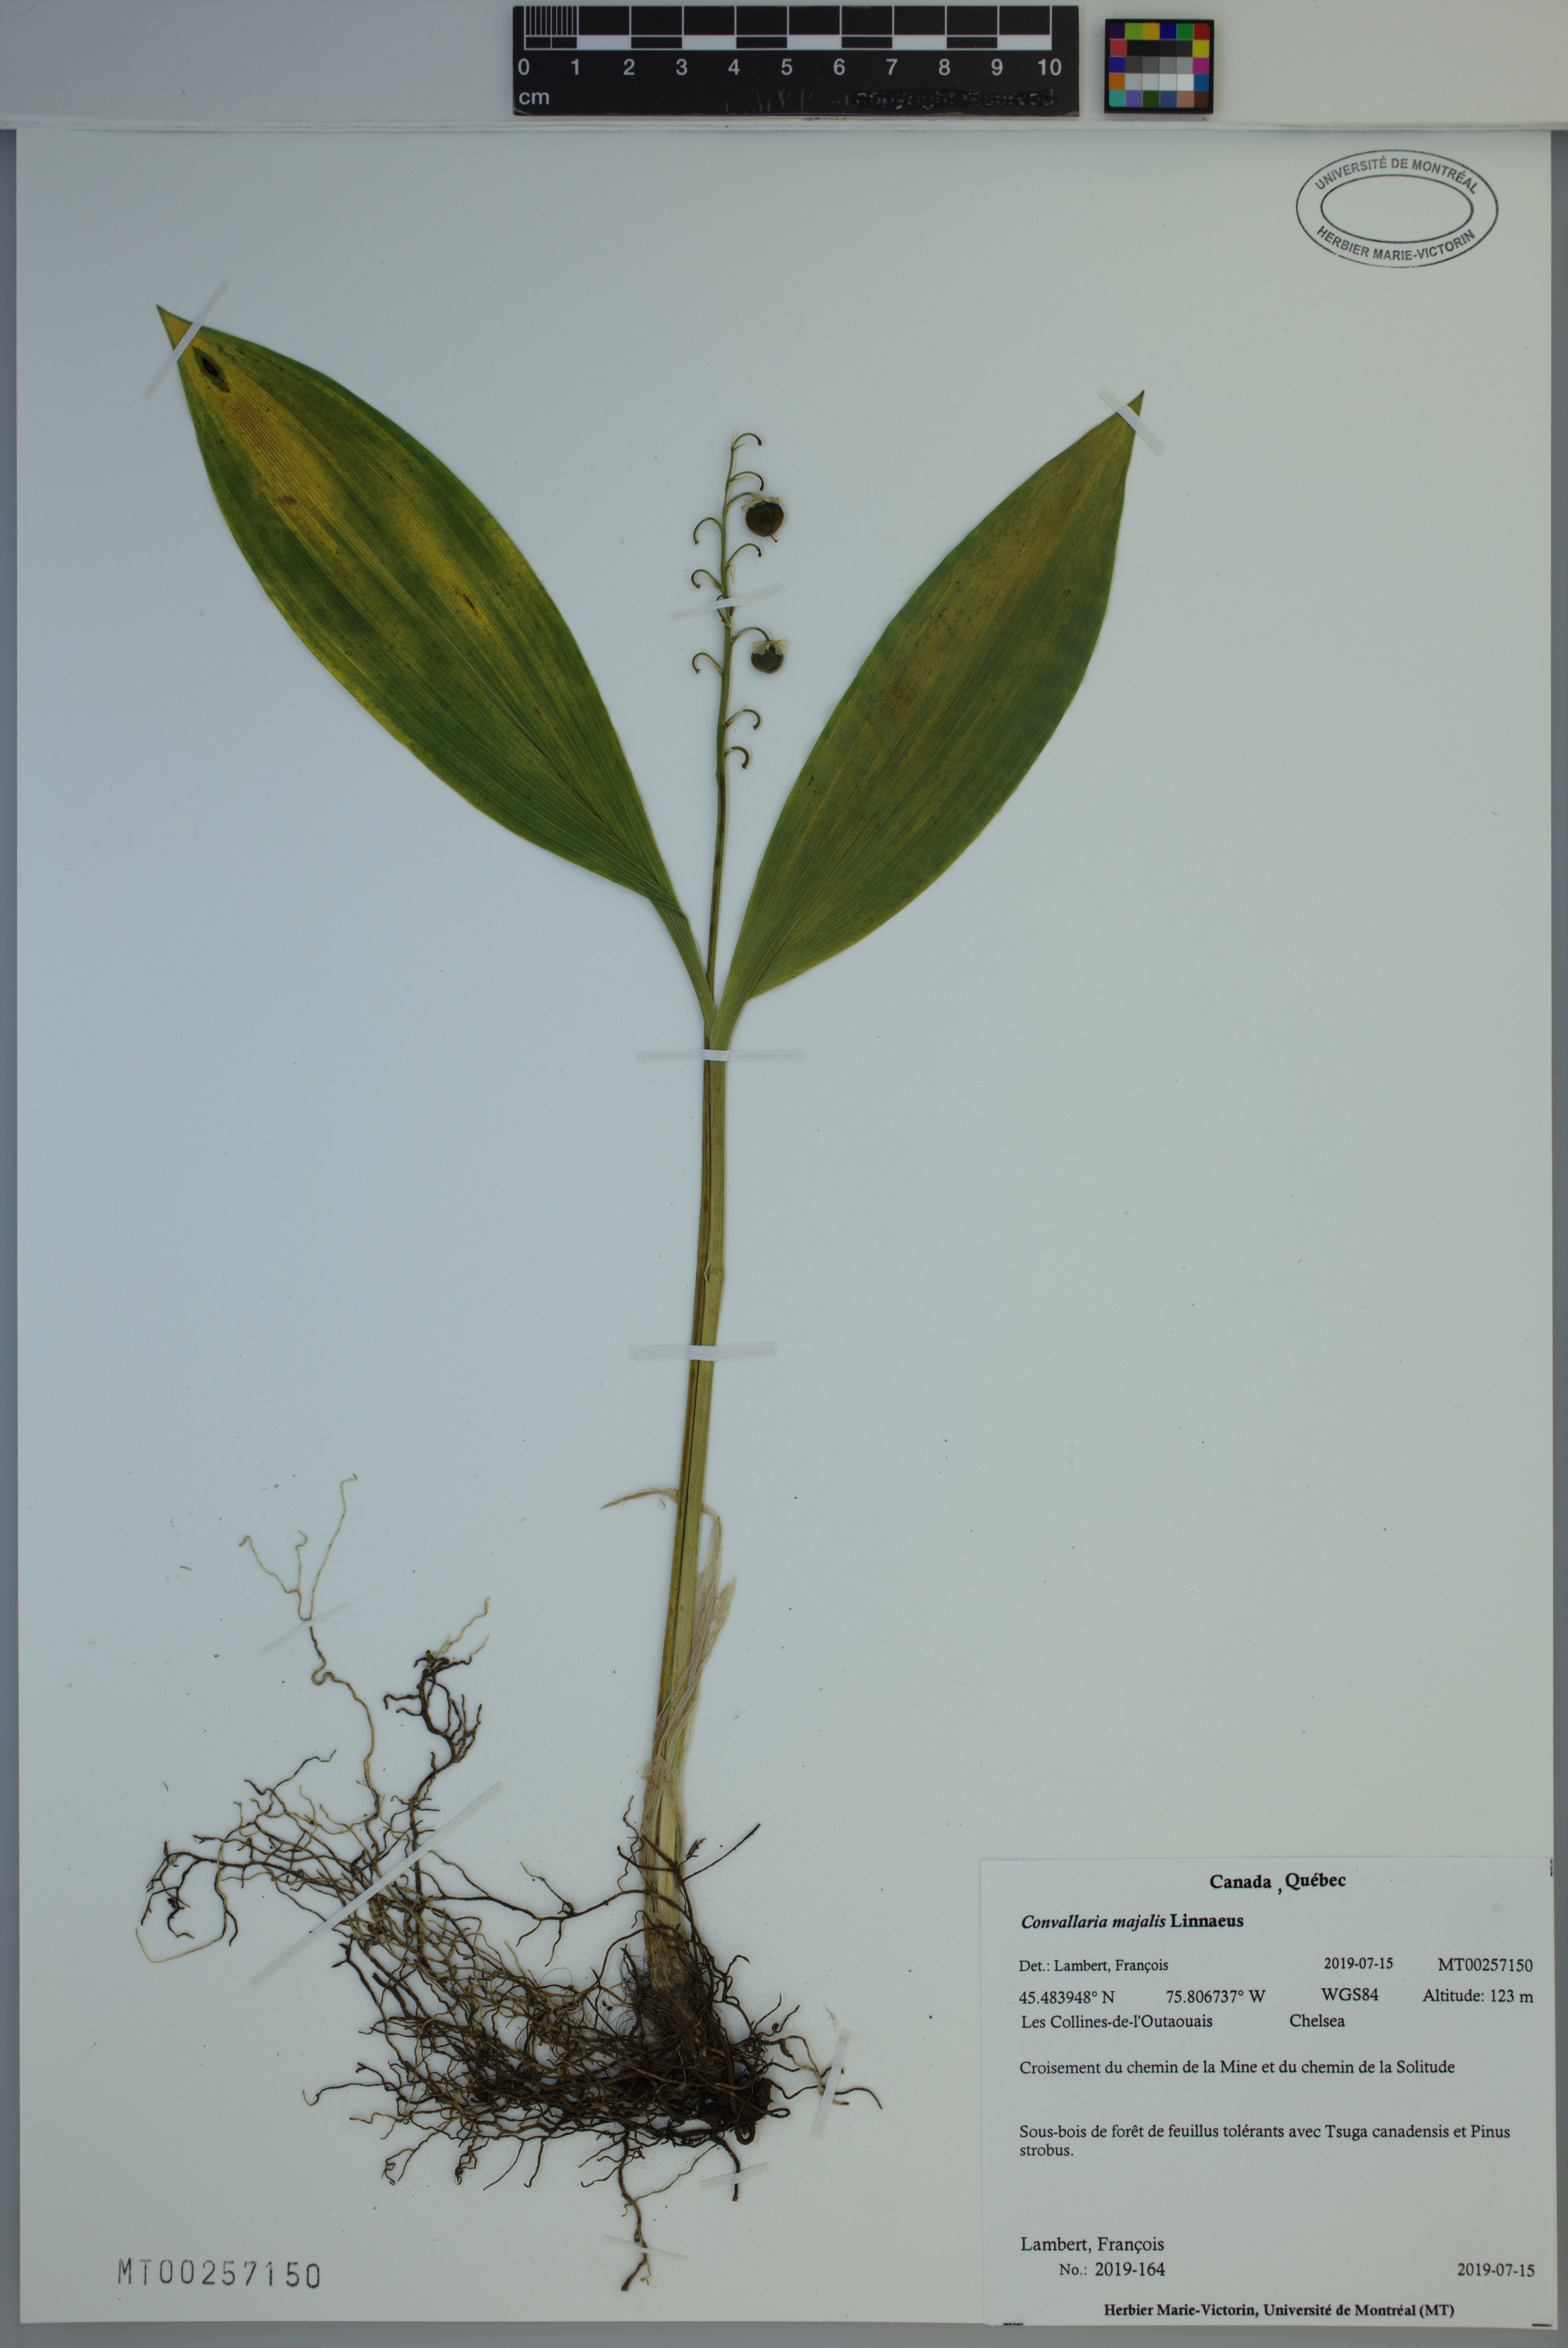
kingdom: Plantae
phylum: Tracheophyta
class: Liliopsida
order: Asparagales
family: Asparagaceae
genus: Convallaria
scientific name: Convallaria majalis
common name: Lily-of-the-valley
